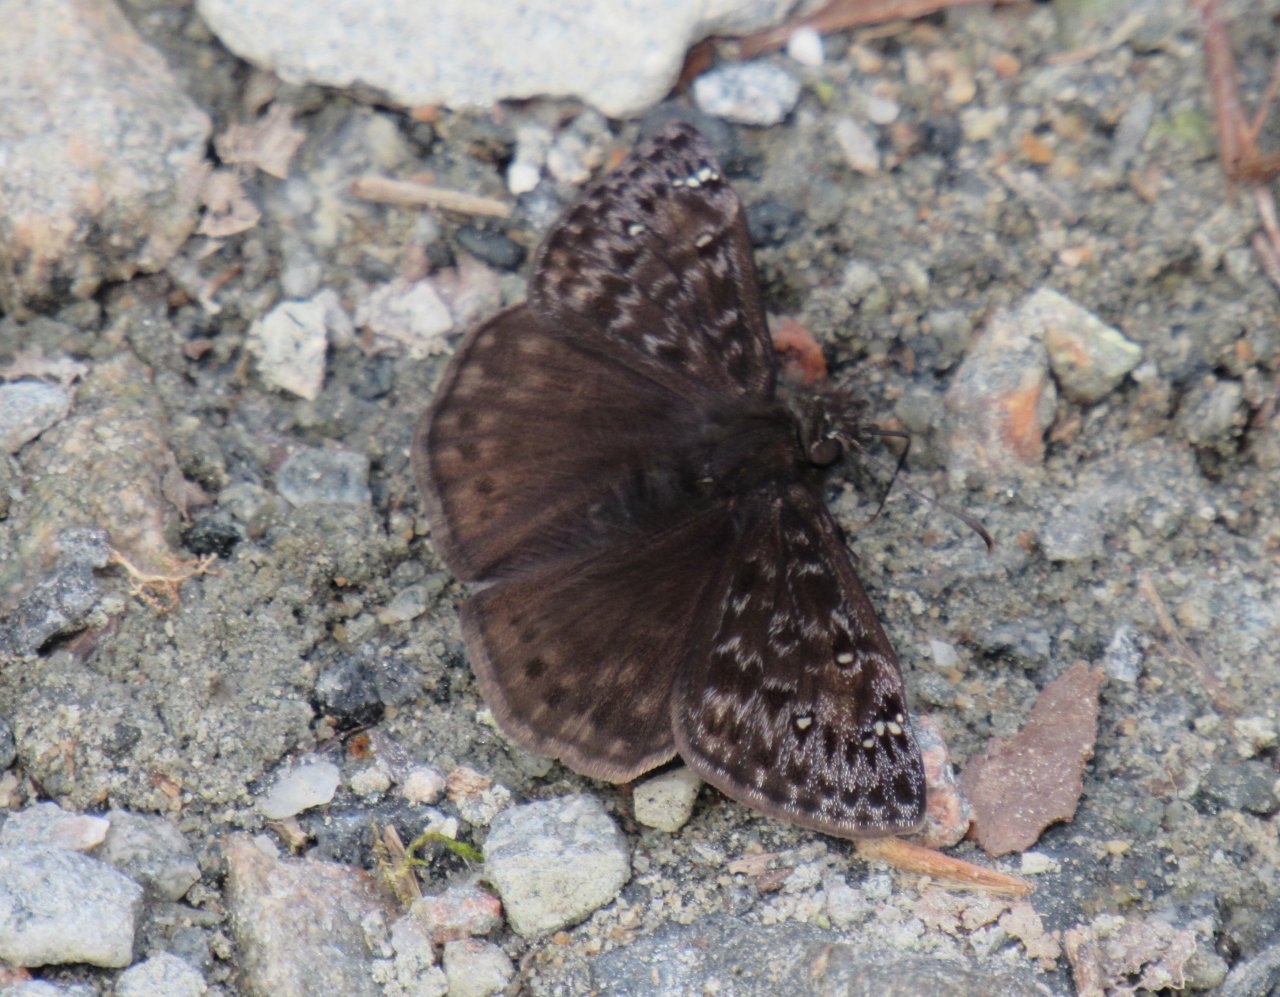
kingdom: Animalia
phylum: Arthropoda
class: Insecta
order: Lepidoptera
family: Hesperiidae
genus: Gesta
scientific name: Gesta
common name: Juvenal's Duskywing
